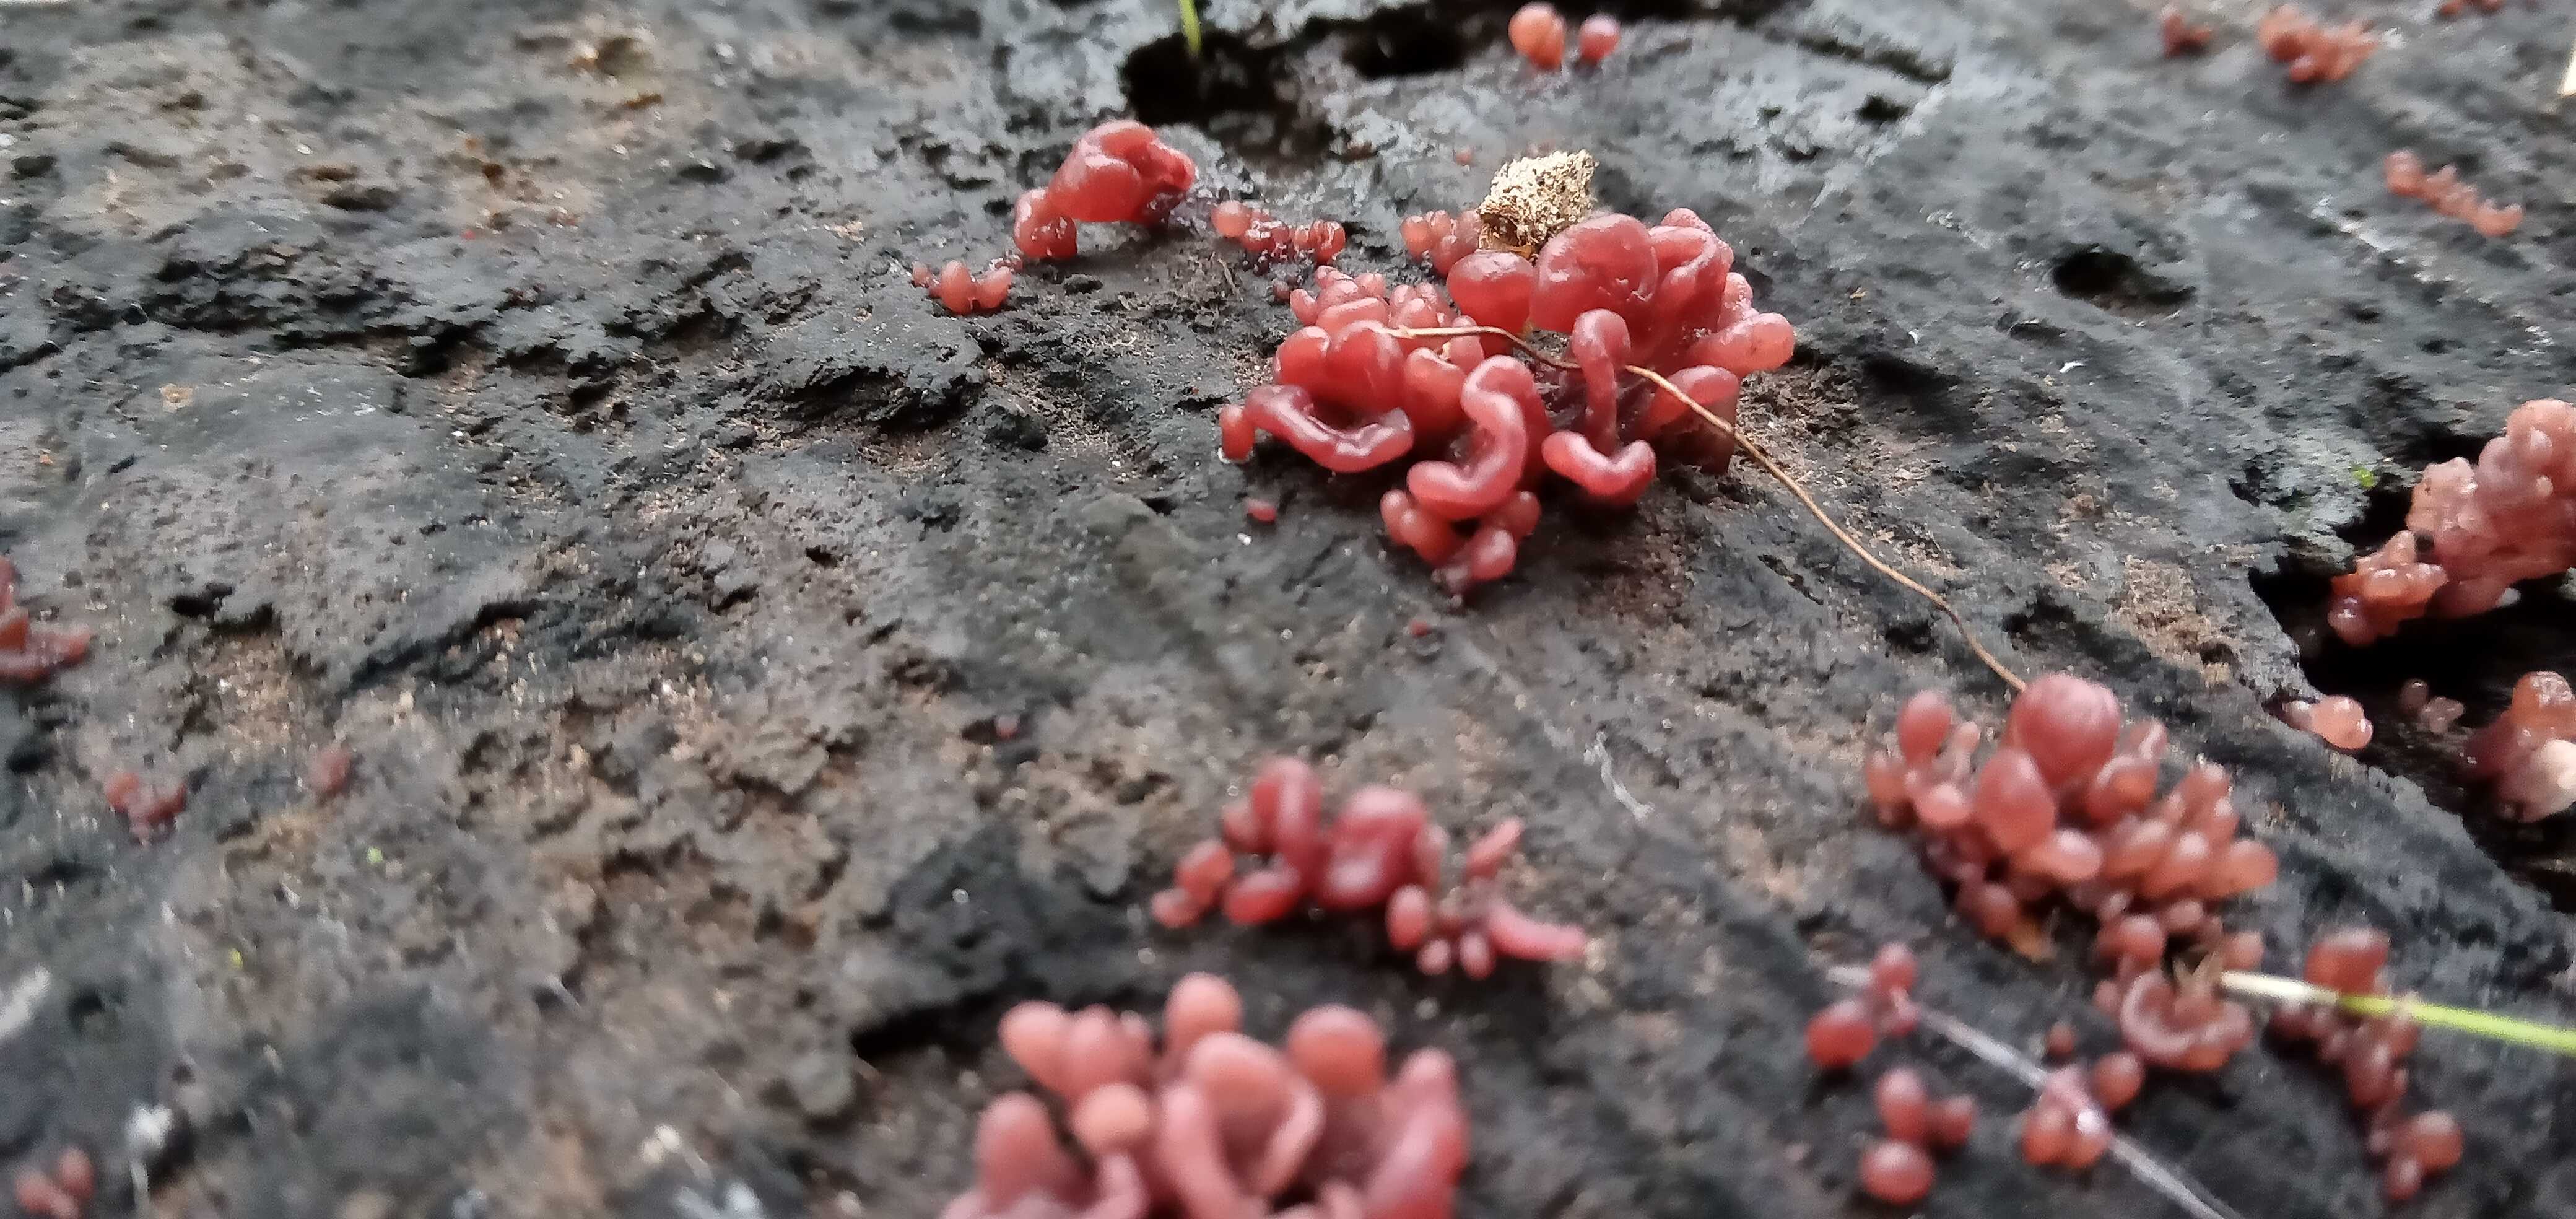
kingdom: Fungi
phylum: Ascomycota
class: Leotiomycetes
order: Helotiales
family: Gelatinodiscaceae
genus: Ascocoryne
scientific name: Ascocoryne sarcoides
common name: rødlilla sejskive
